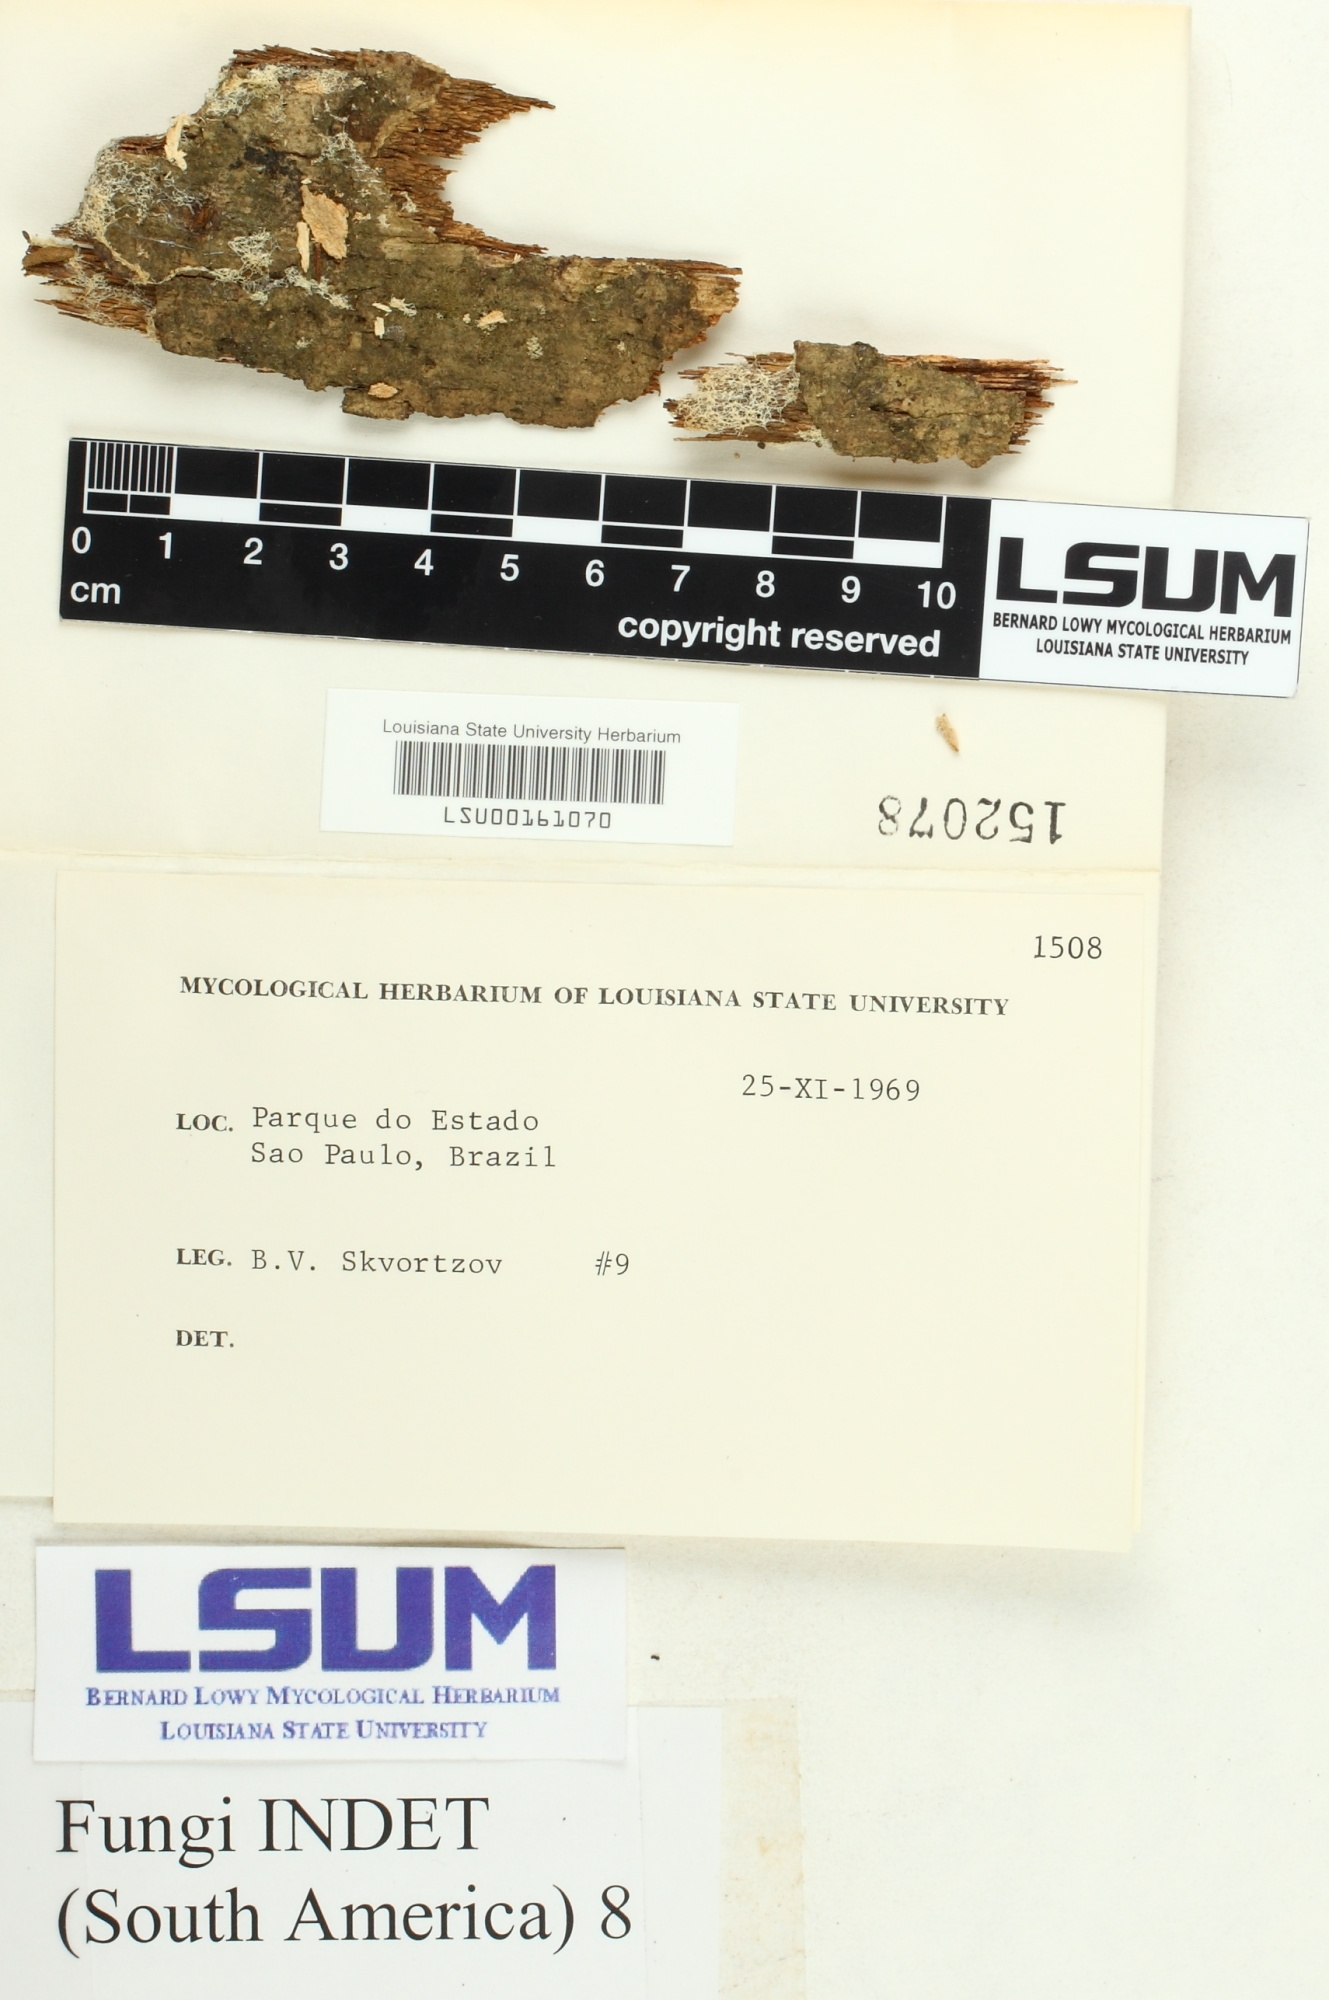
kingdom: Fungi
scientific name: Fungi
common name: Fungi
